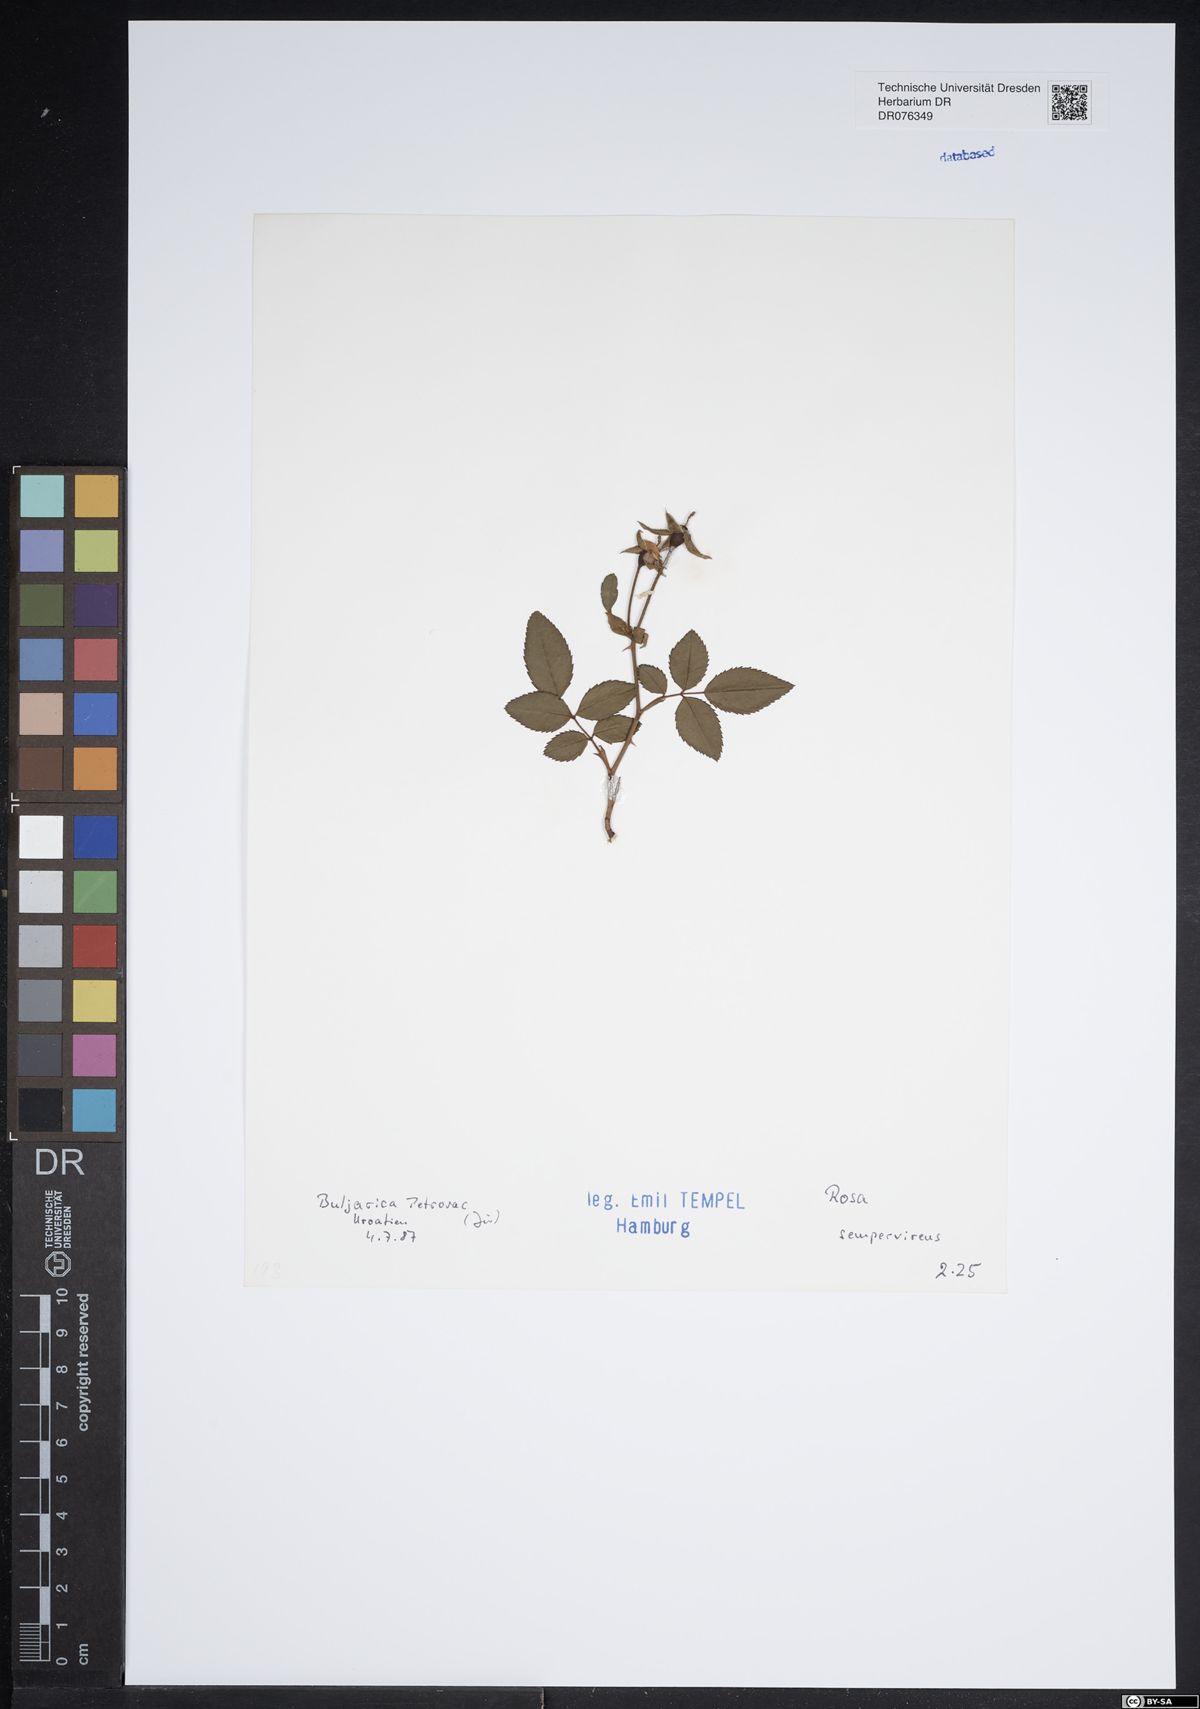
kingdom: Plantae
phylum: Tracheophyta
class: Magnoliopsida
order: Rosales
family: Rosaceae
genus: Rosa
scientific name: Rosa sempervirens
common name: Evergreen rose
